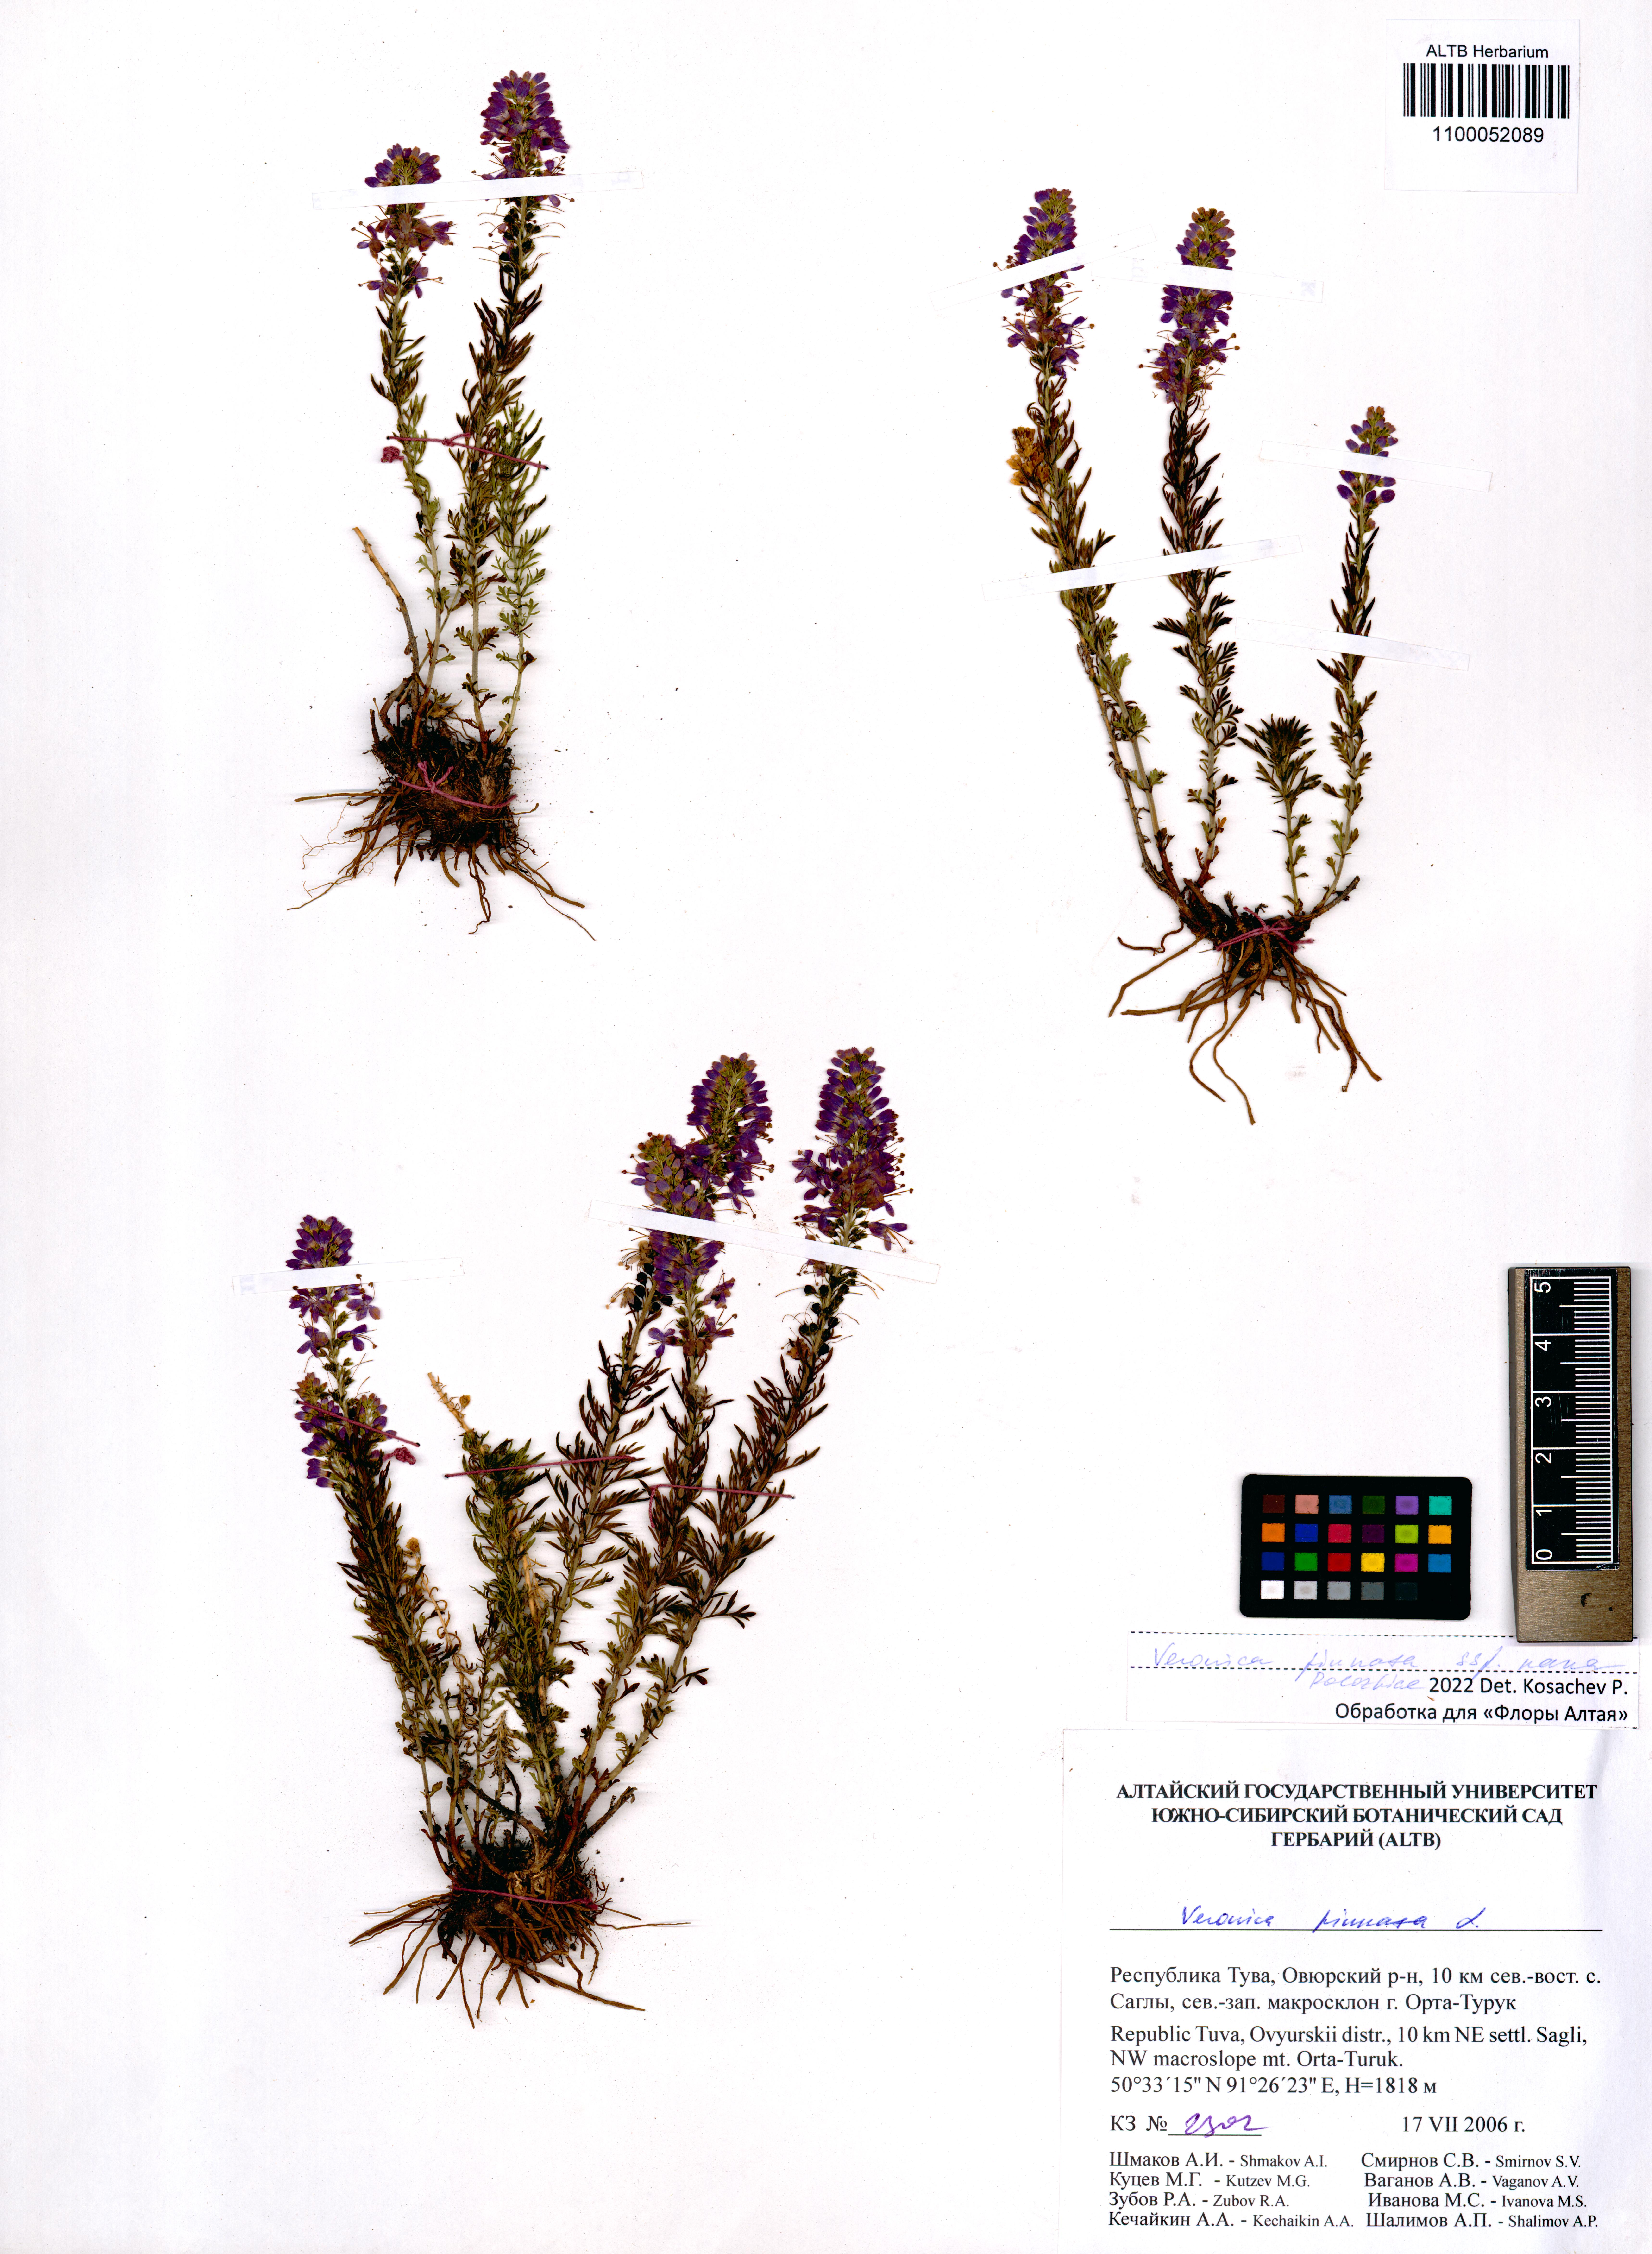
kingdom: Plantae
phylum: Tracheophyta
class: Magnoliopsida
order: Lamiales
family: Plantaginaceae
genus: Veronica
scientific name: Veronica pinnata
